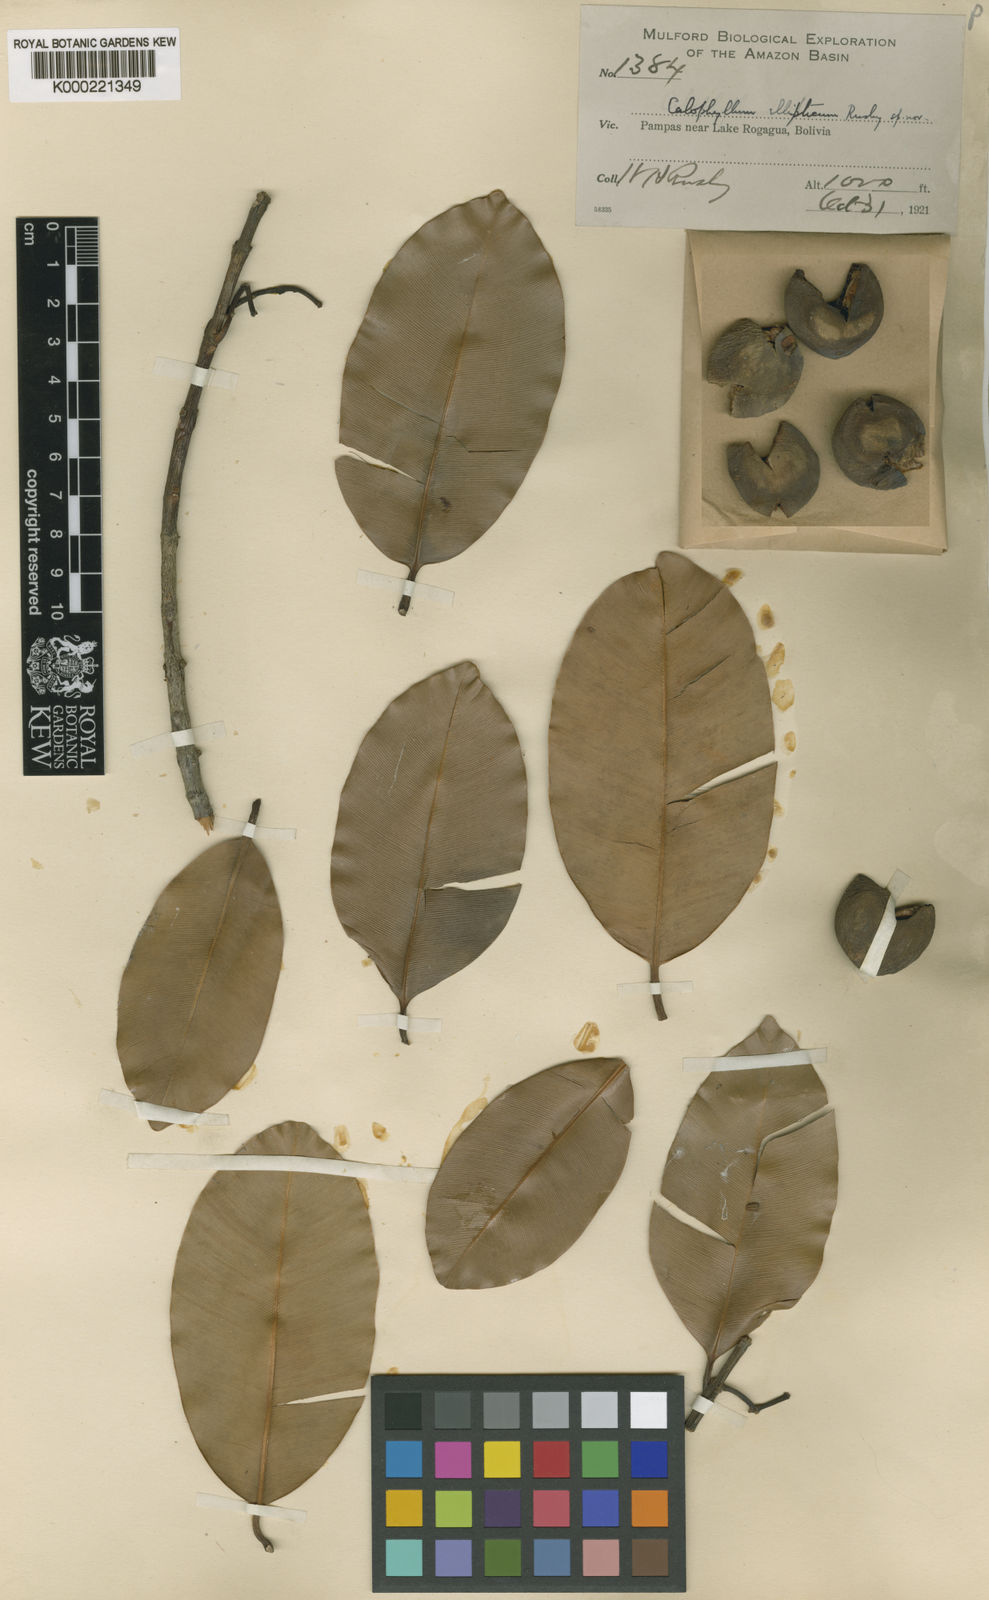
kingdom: Plantae
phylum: Tracheophyta
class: Magnoliopsida
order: Malpighiales
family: Calophyllaceae
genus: Calophyllum
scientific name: Calophyllum brasiliense
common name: Santa maria
